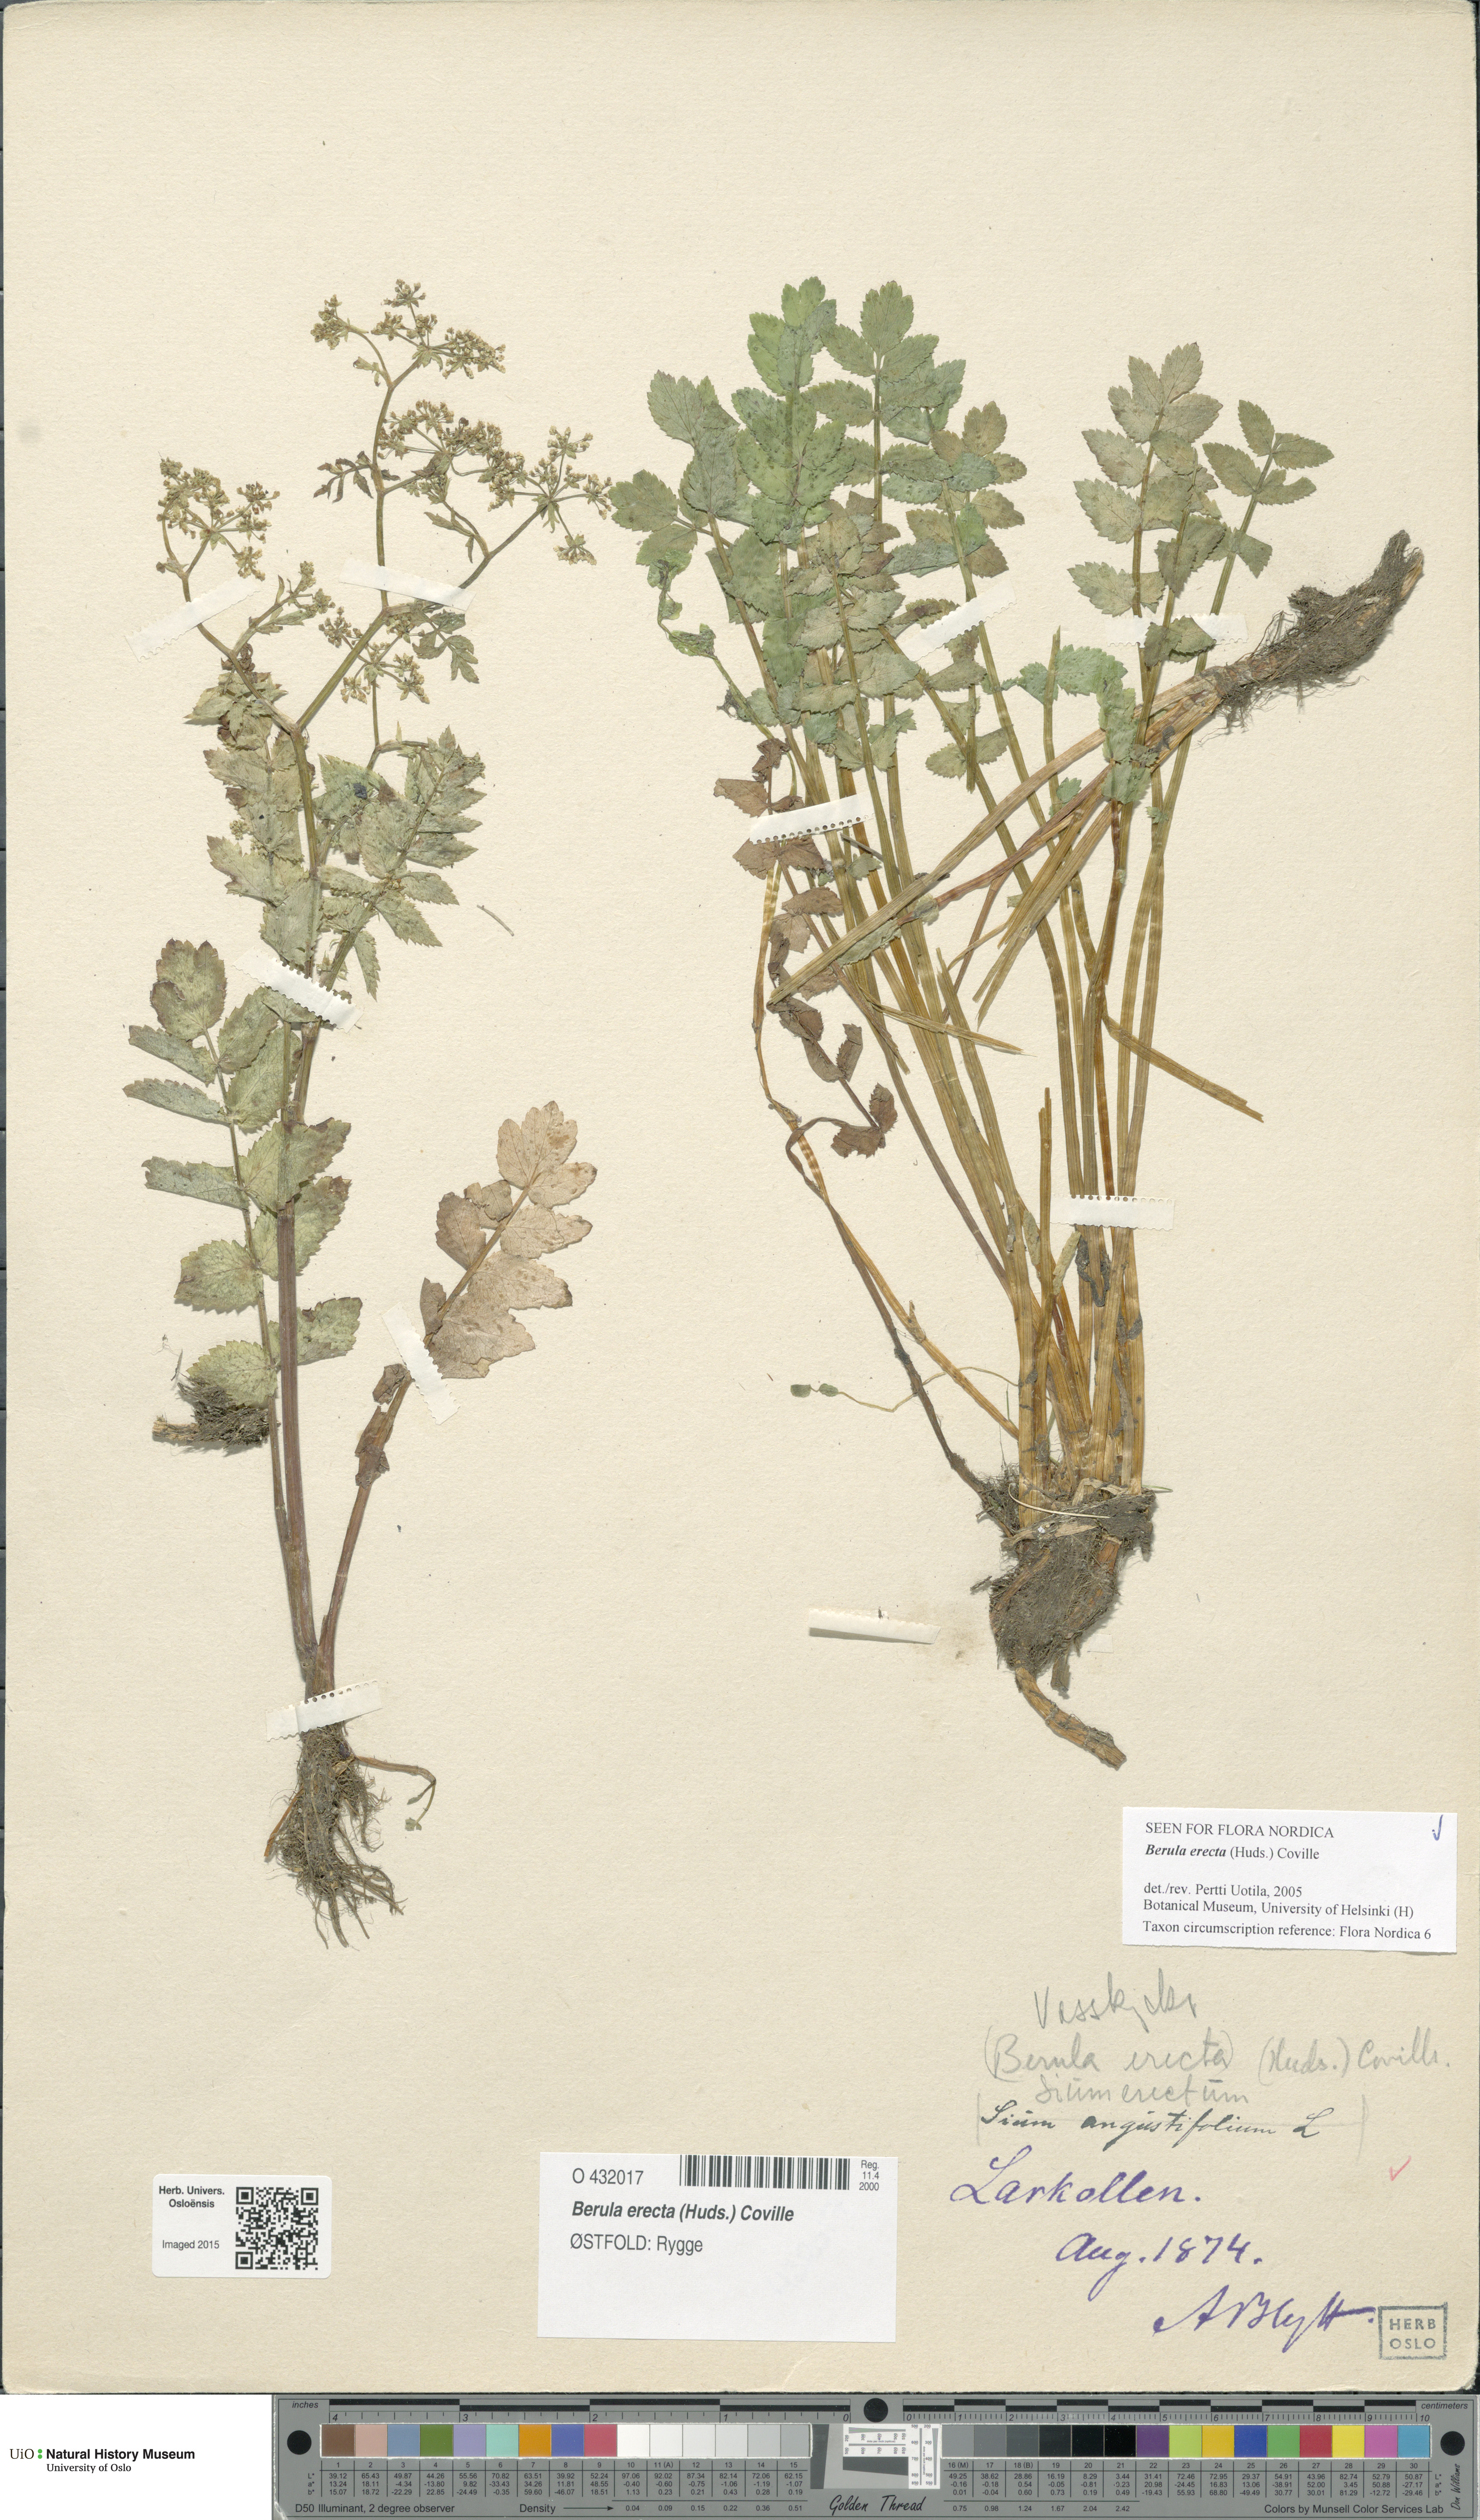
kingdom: Plantae
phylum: Tracheophyta
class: Magnoliopsida
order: Apiales
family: Apiaceae
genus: Berula
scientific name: Berula erecta
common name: Lesser water-parsnip
